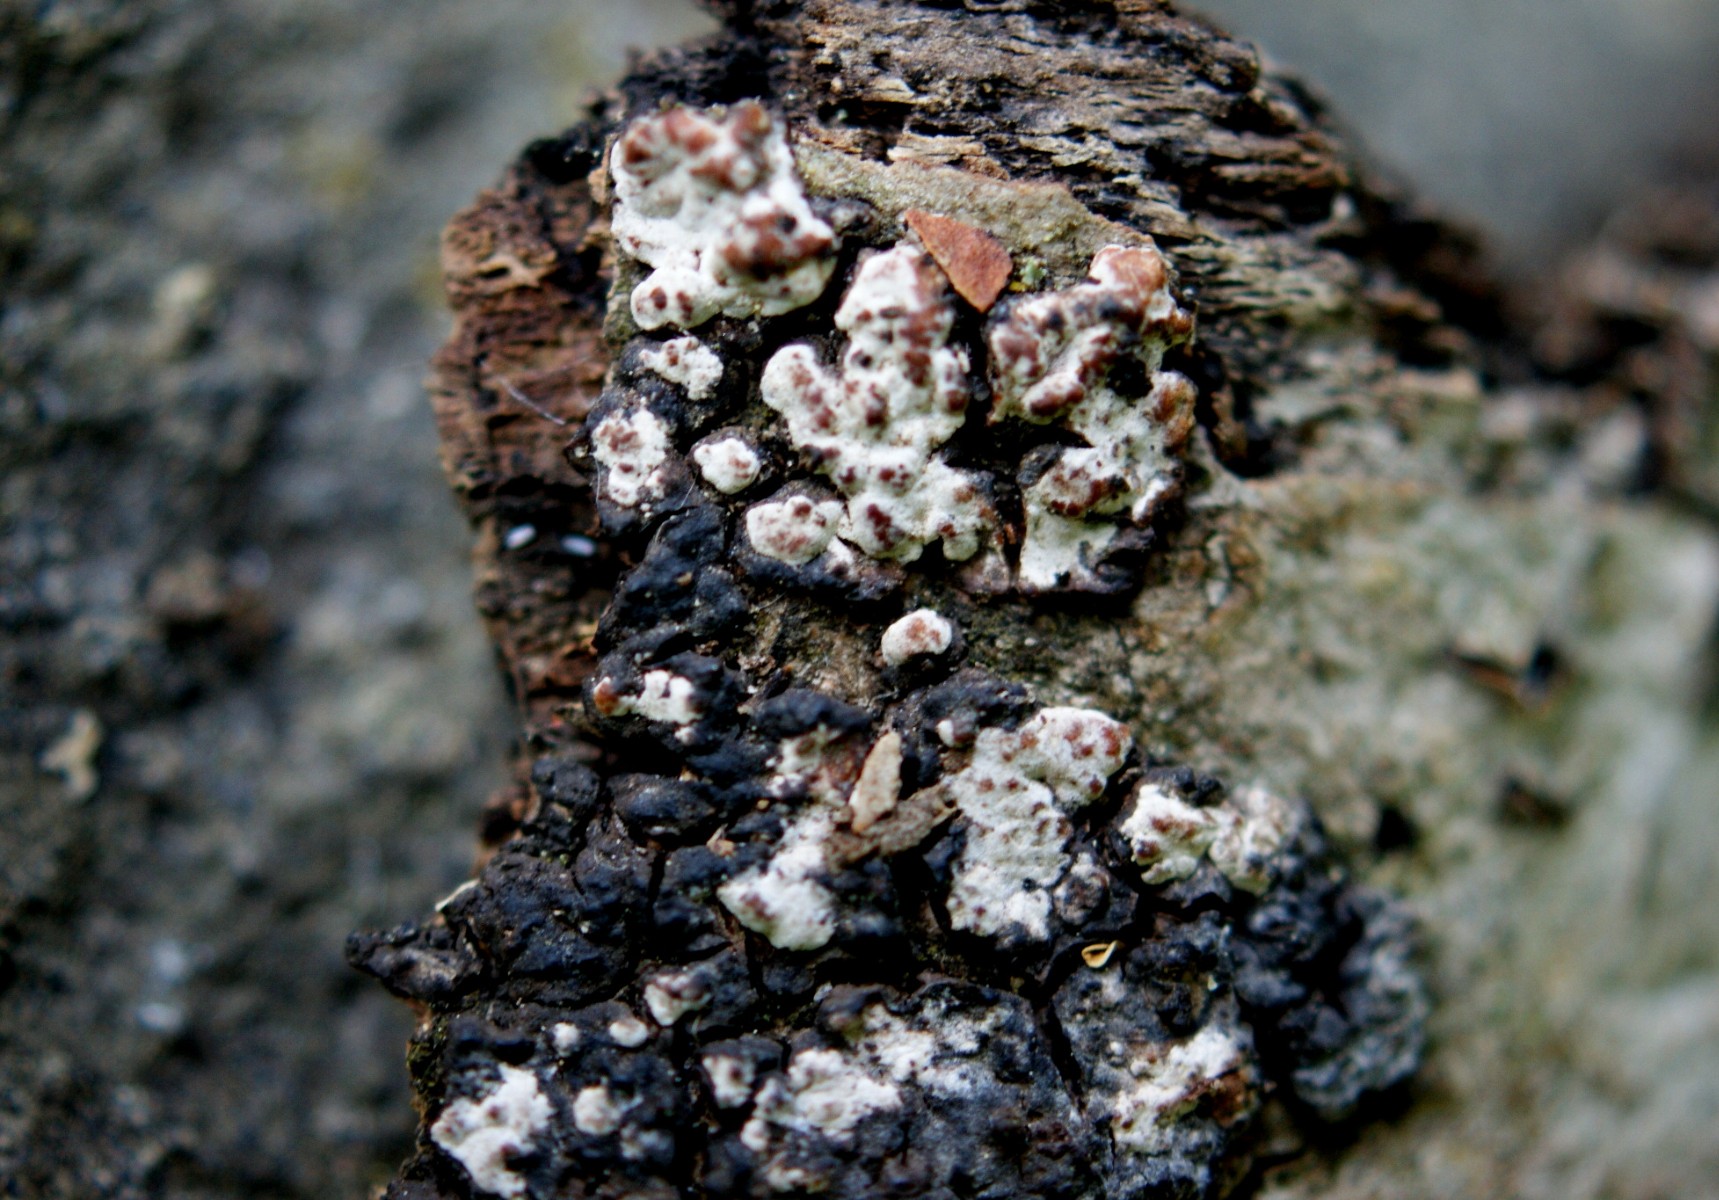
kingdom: Fungi
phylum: Basidiomycota
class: Agaricomycetes
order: Russulales
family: Peniophoraceae
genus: Peniophora
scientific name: Peniophora polygonia
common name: polygon-voksskind
